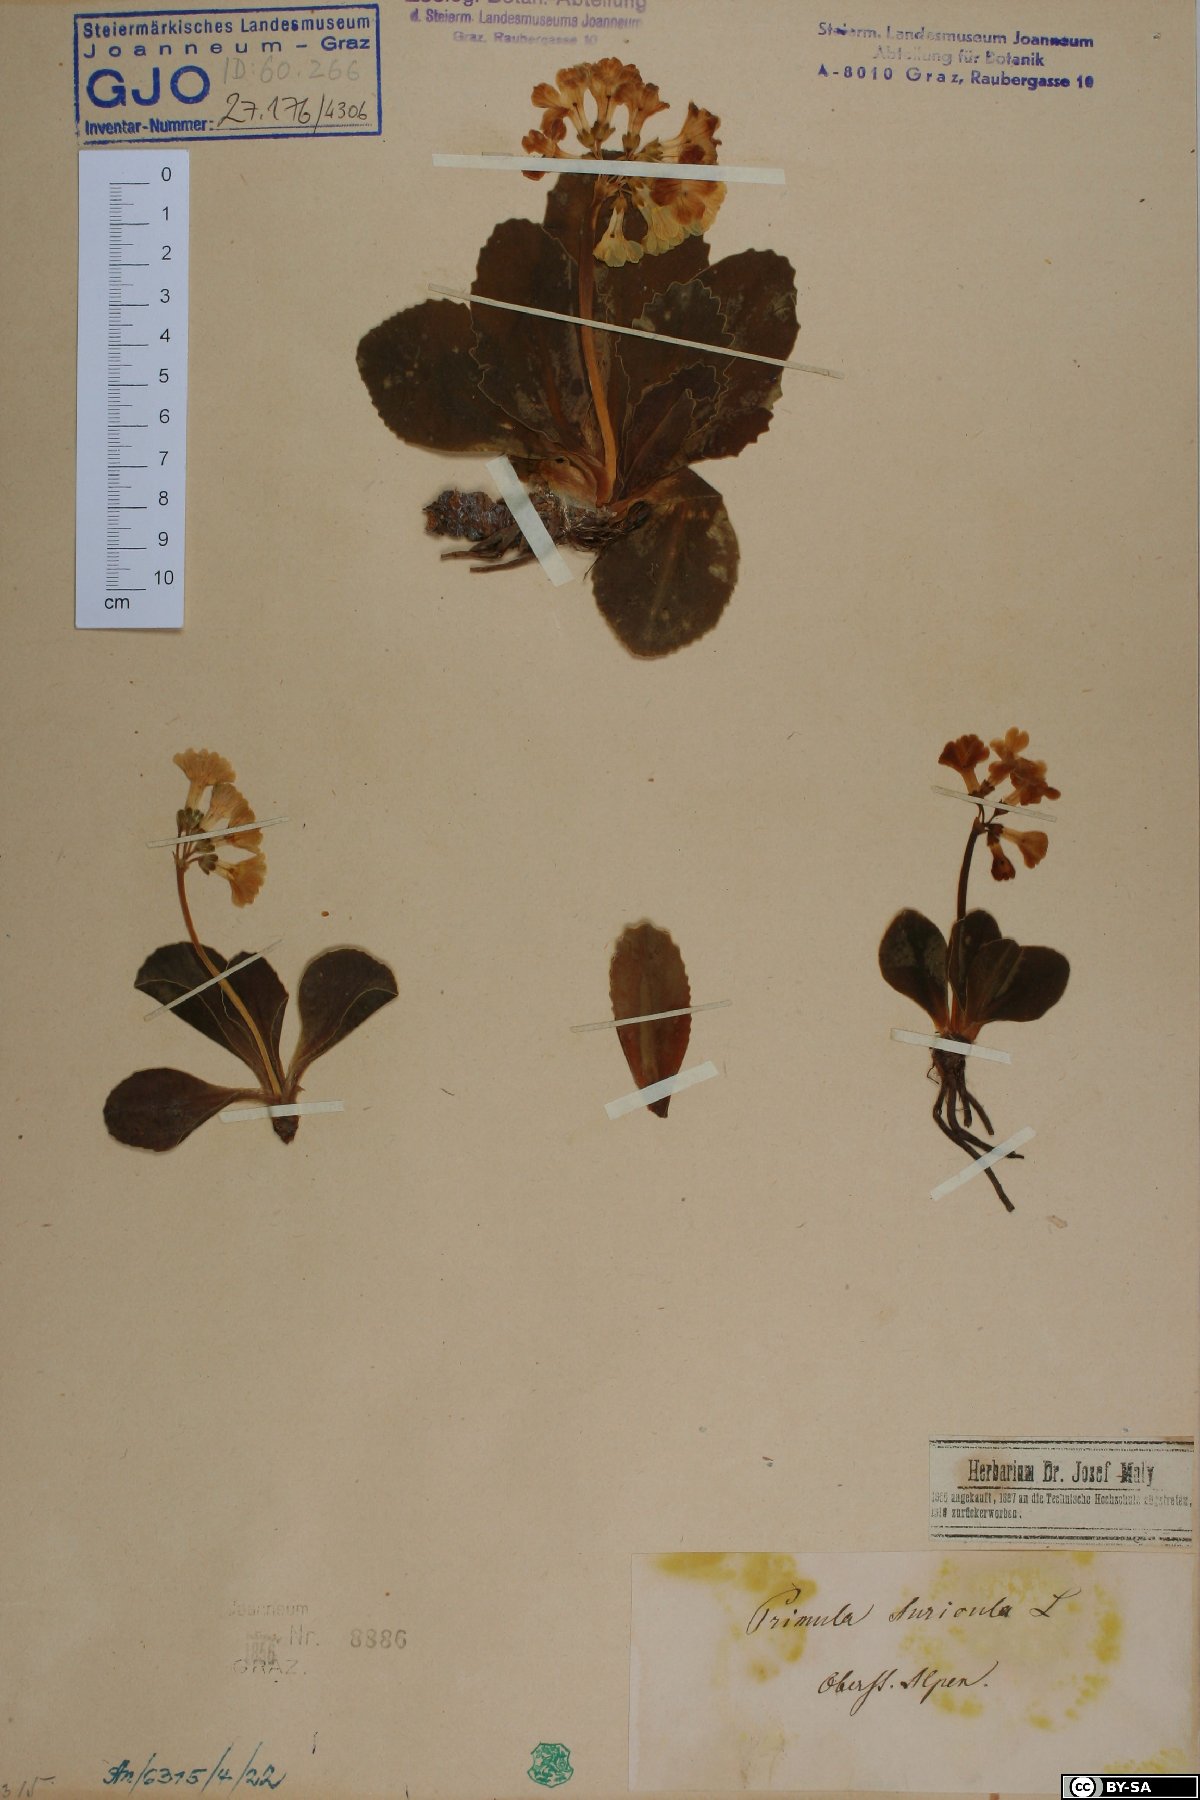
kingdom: Plantae
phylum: Tracheophyta
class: Magnoliopsida
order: Ericales
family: Primulaceae
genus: Primula
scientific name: Primula auricula
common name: Auricula
